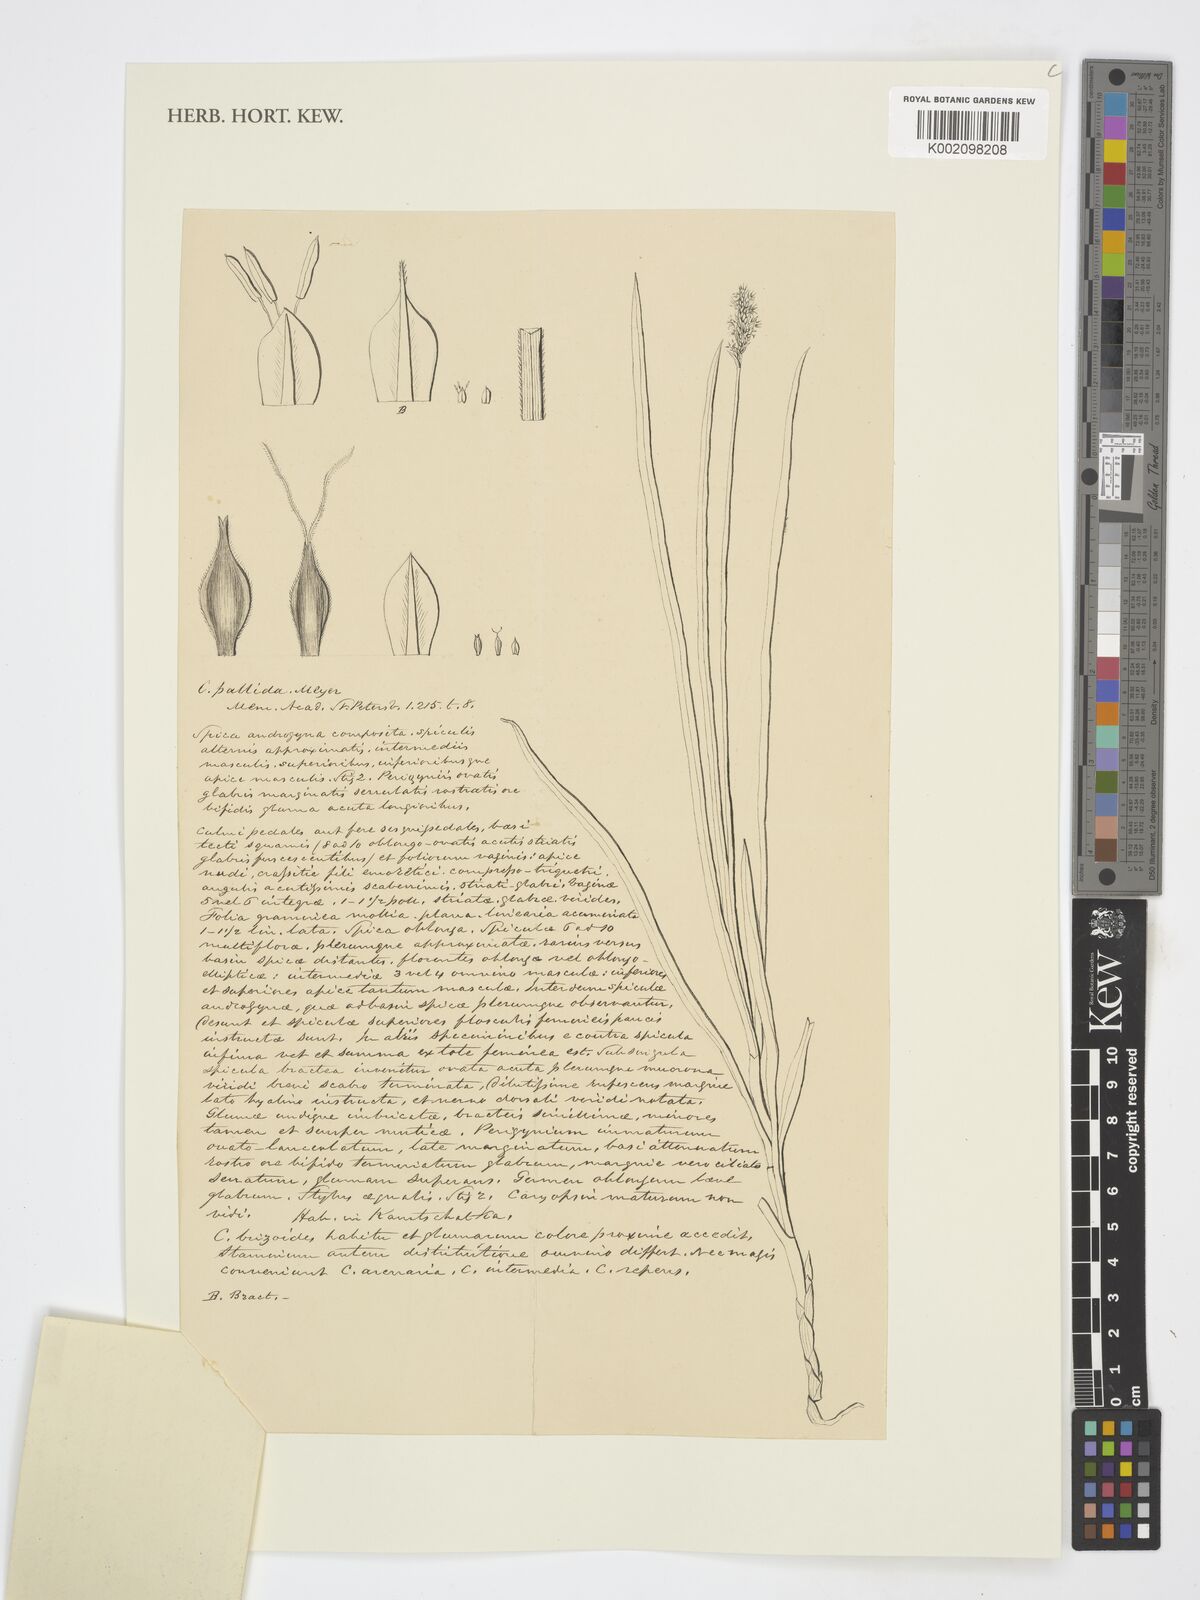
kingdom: Plantae
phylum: Tracheophyta
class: Liliopsida
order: Poales
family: Cyperaceae
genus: Carex
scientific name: Carex accrescens
